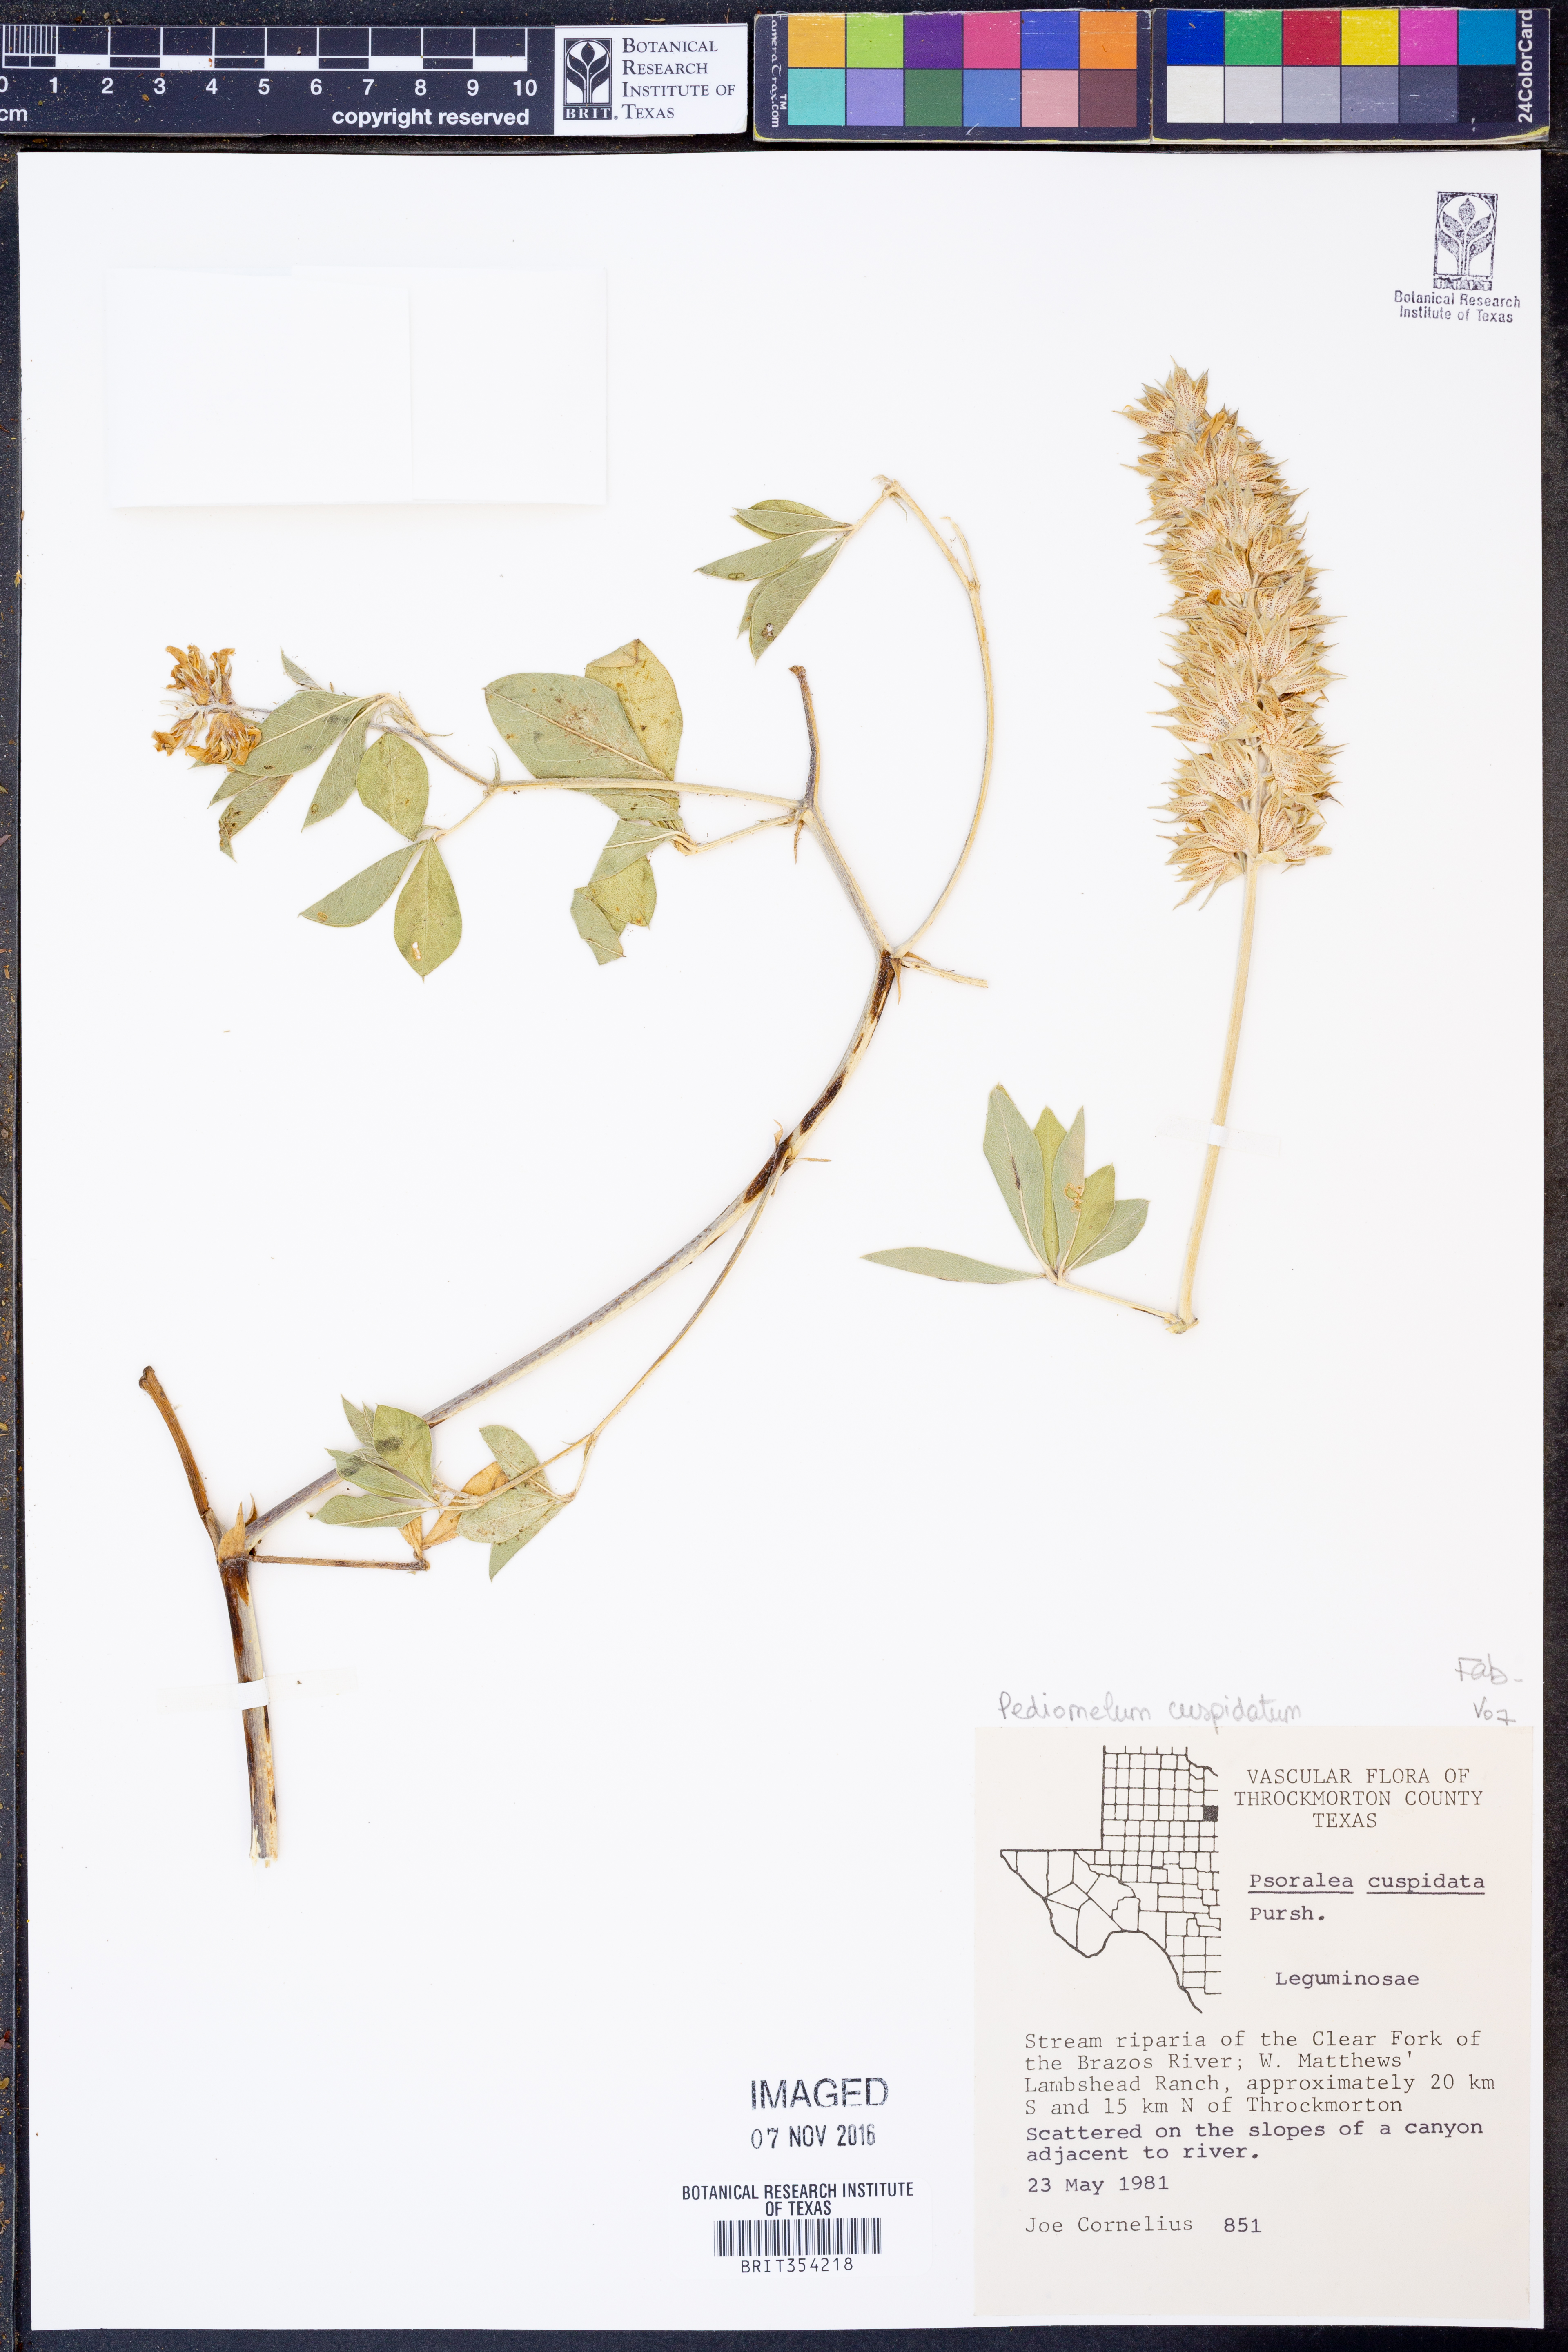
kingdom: Plantae
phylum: Tracheophyta
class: Magnoliopsida
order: Fabales
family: Fabaceae
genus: Pediomelum
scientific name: Pediomelum cuspidatum
